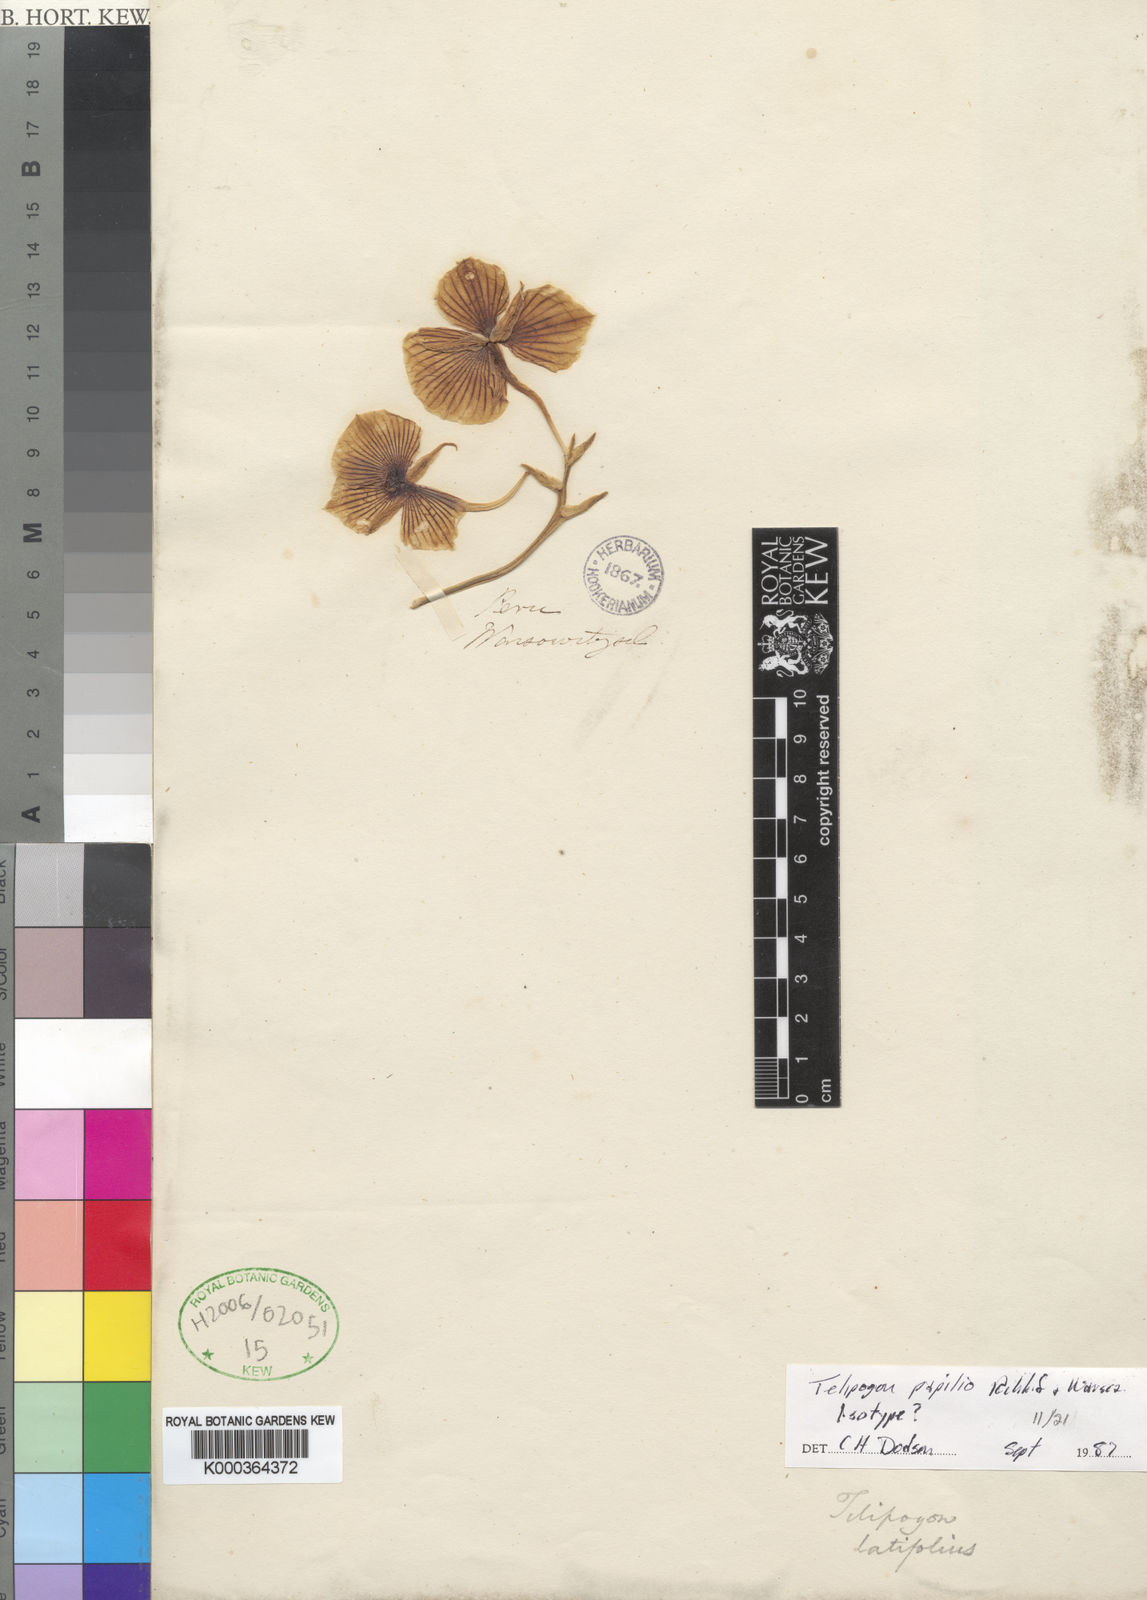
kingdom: Plantae
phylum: Tracheophyta
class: Liliopsida
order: Asparagales
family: Orchidaceae
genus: Telipogon
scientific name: Telipogon papilio
